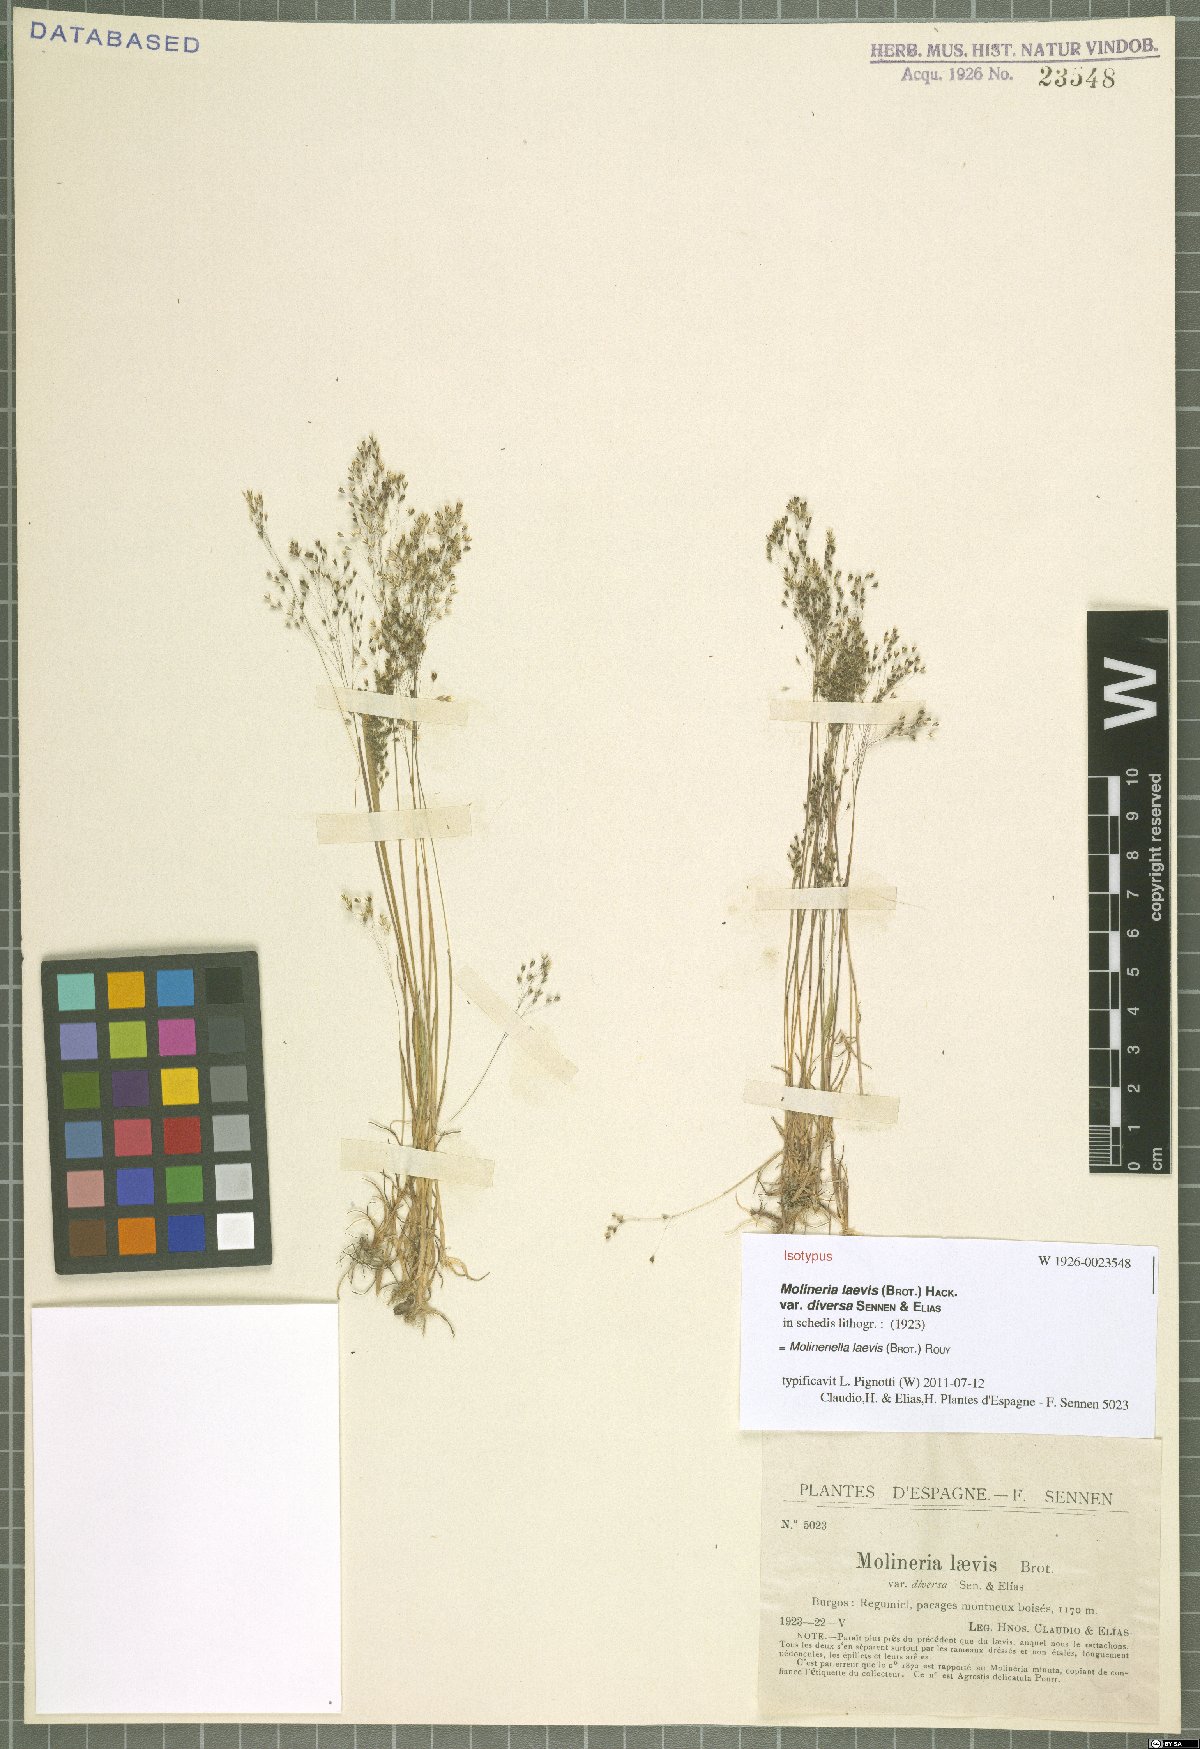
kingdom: Plantae
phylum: Tracheophyta
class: Liliopsida
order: Poales
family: Poaceae
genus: Molineriella
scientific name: Molineriella laevis
